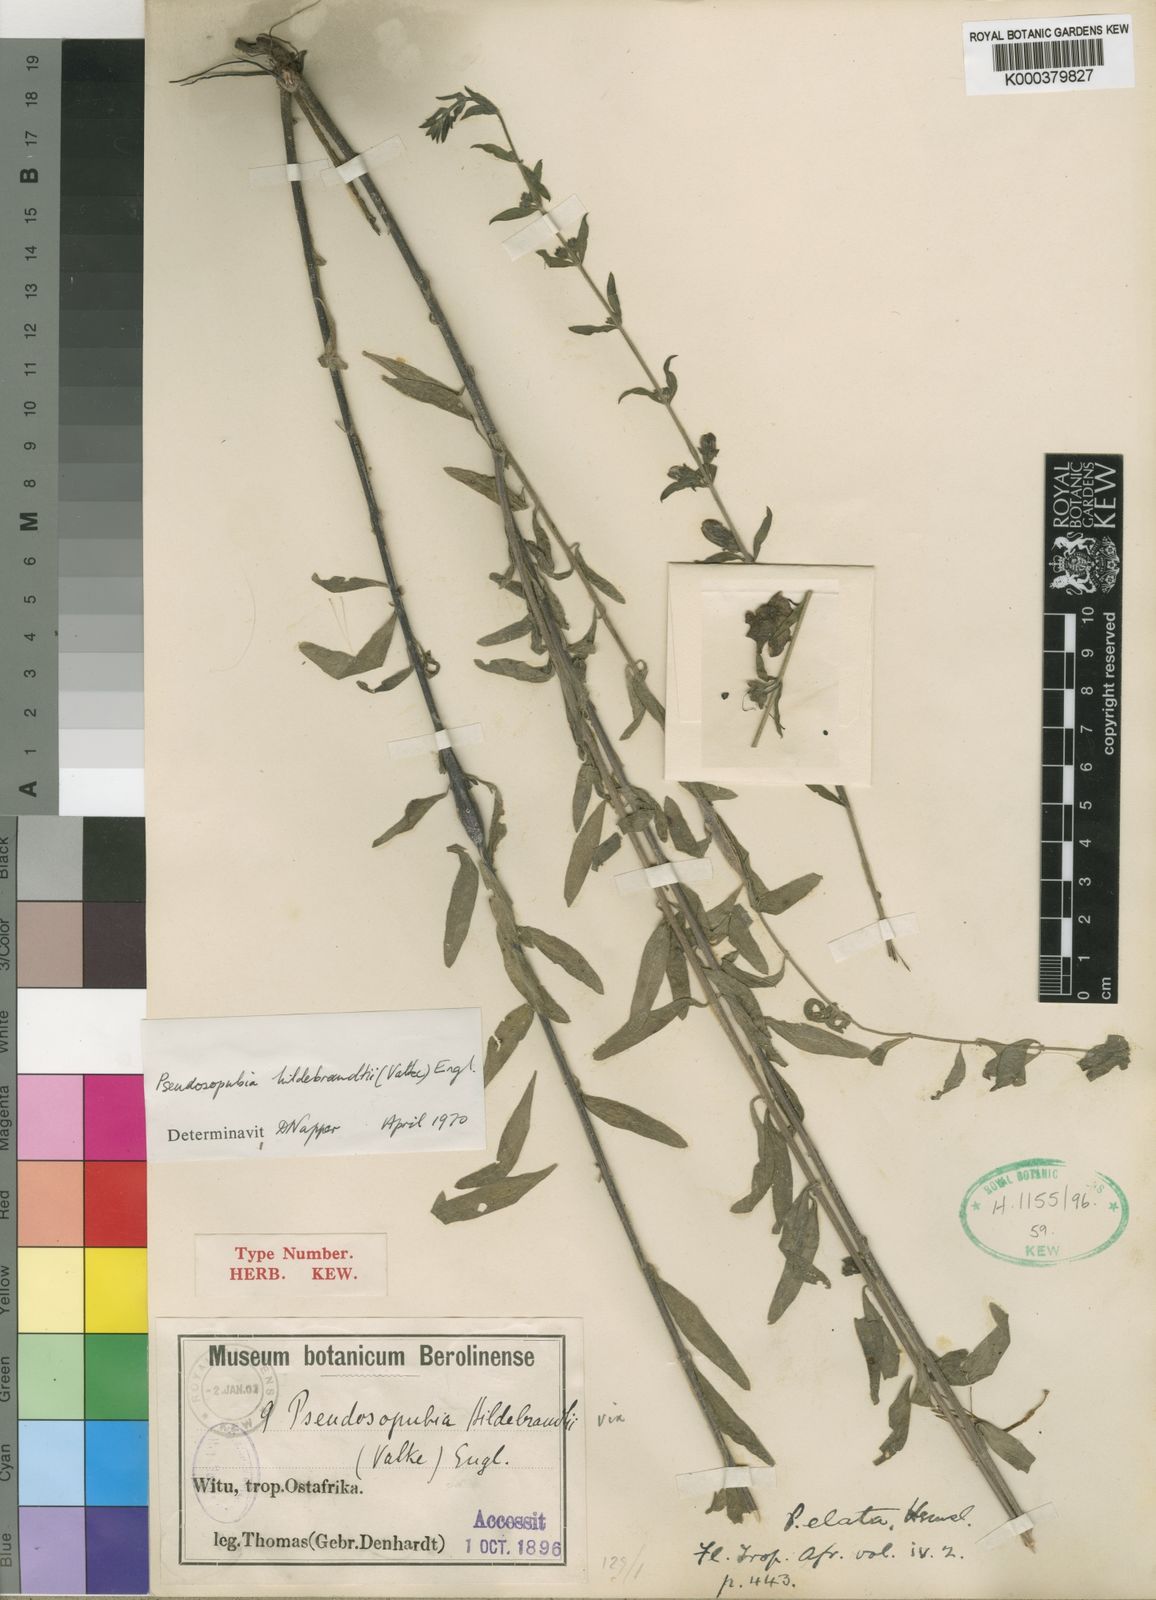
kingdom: Plantae
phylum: Tracheophyta
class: Magnoliopsida
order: Lamiales
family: Orobanchaceae
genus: Pseudosopubia
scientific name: Pseudosopubia hildebrandtii
